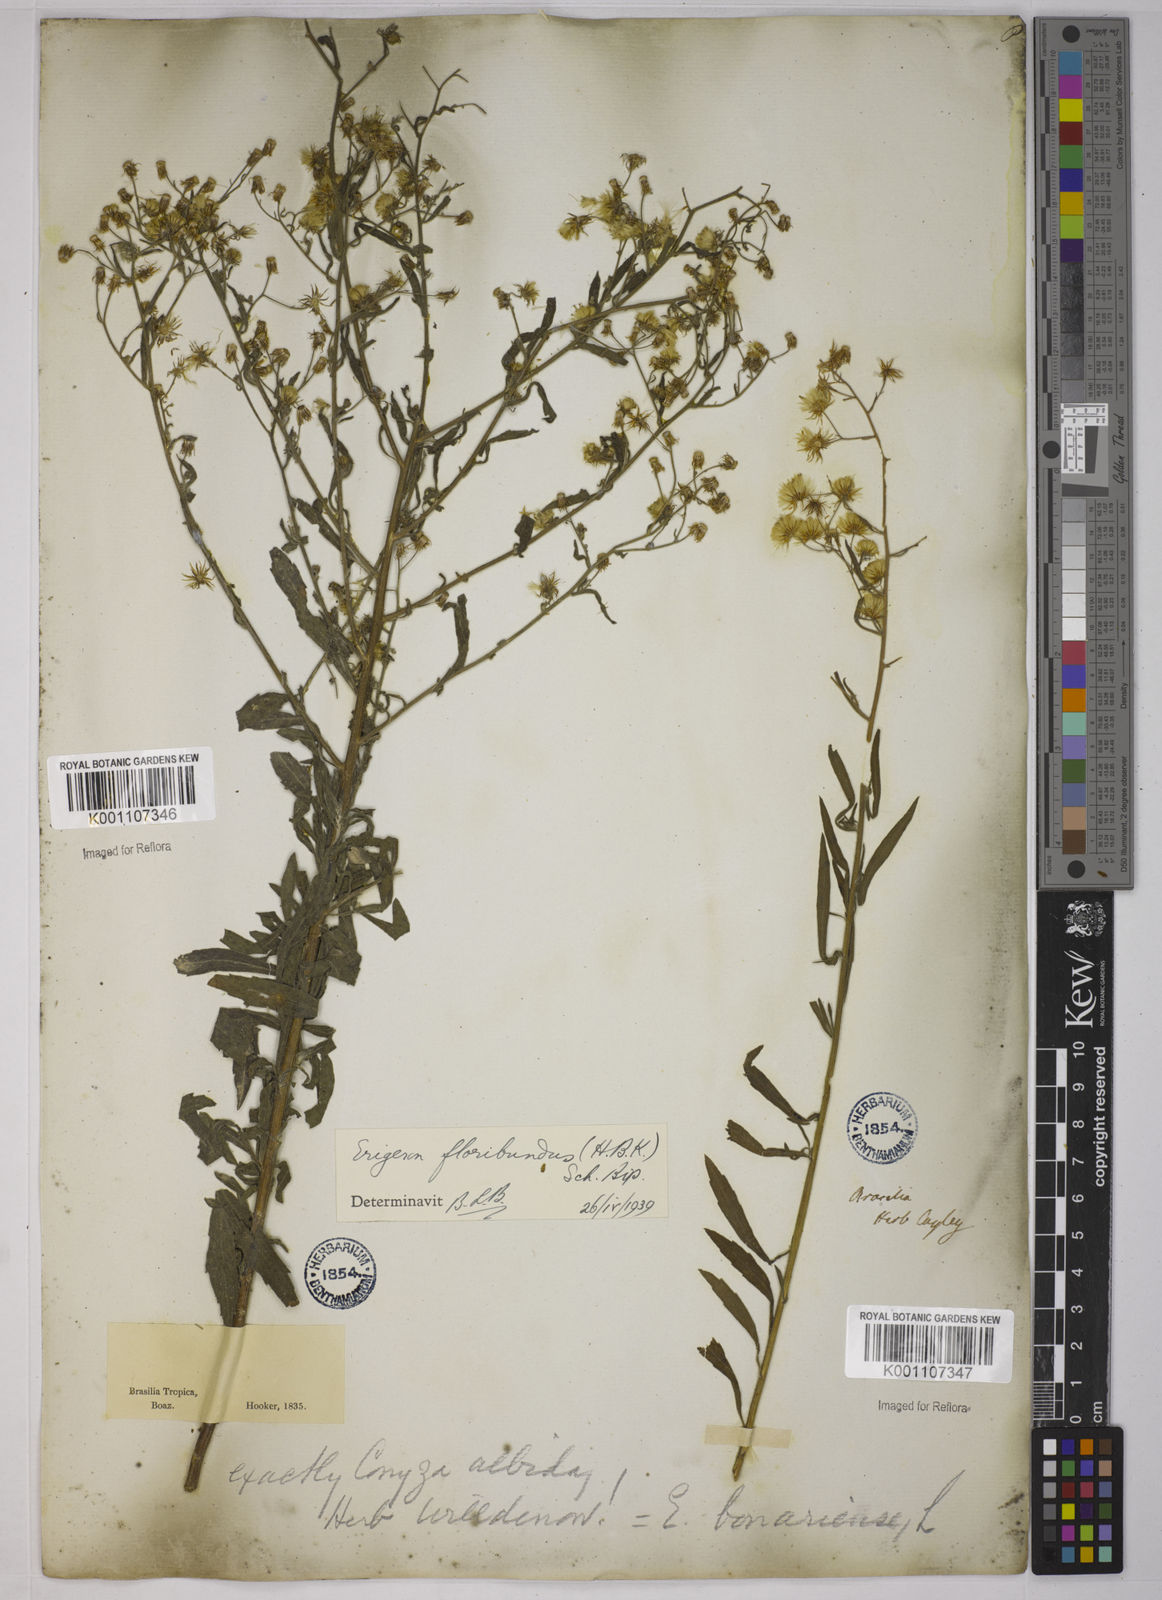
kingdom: Plantae
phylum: Tracheophyta
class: Magnoliopsida
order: Asterales
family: Asteraceae
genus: Erigeron
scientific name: Erigeron floribundus
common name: Bilbao fleabane
